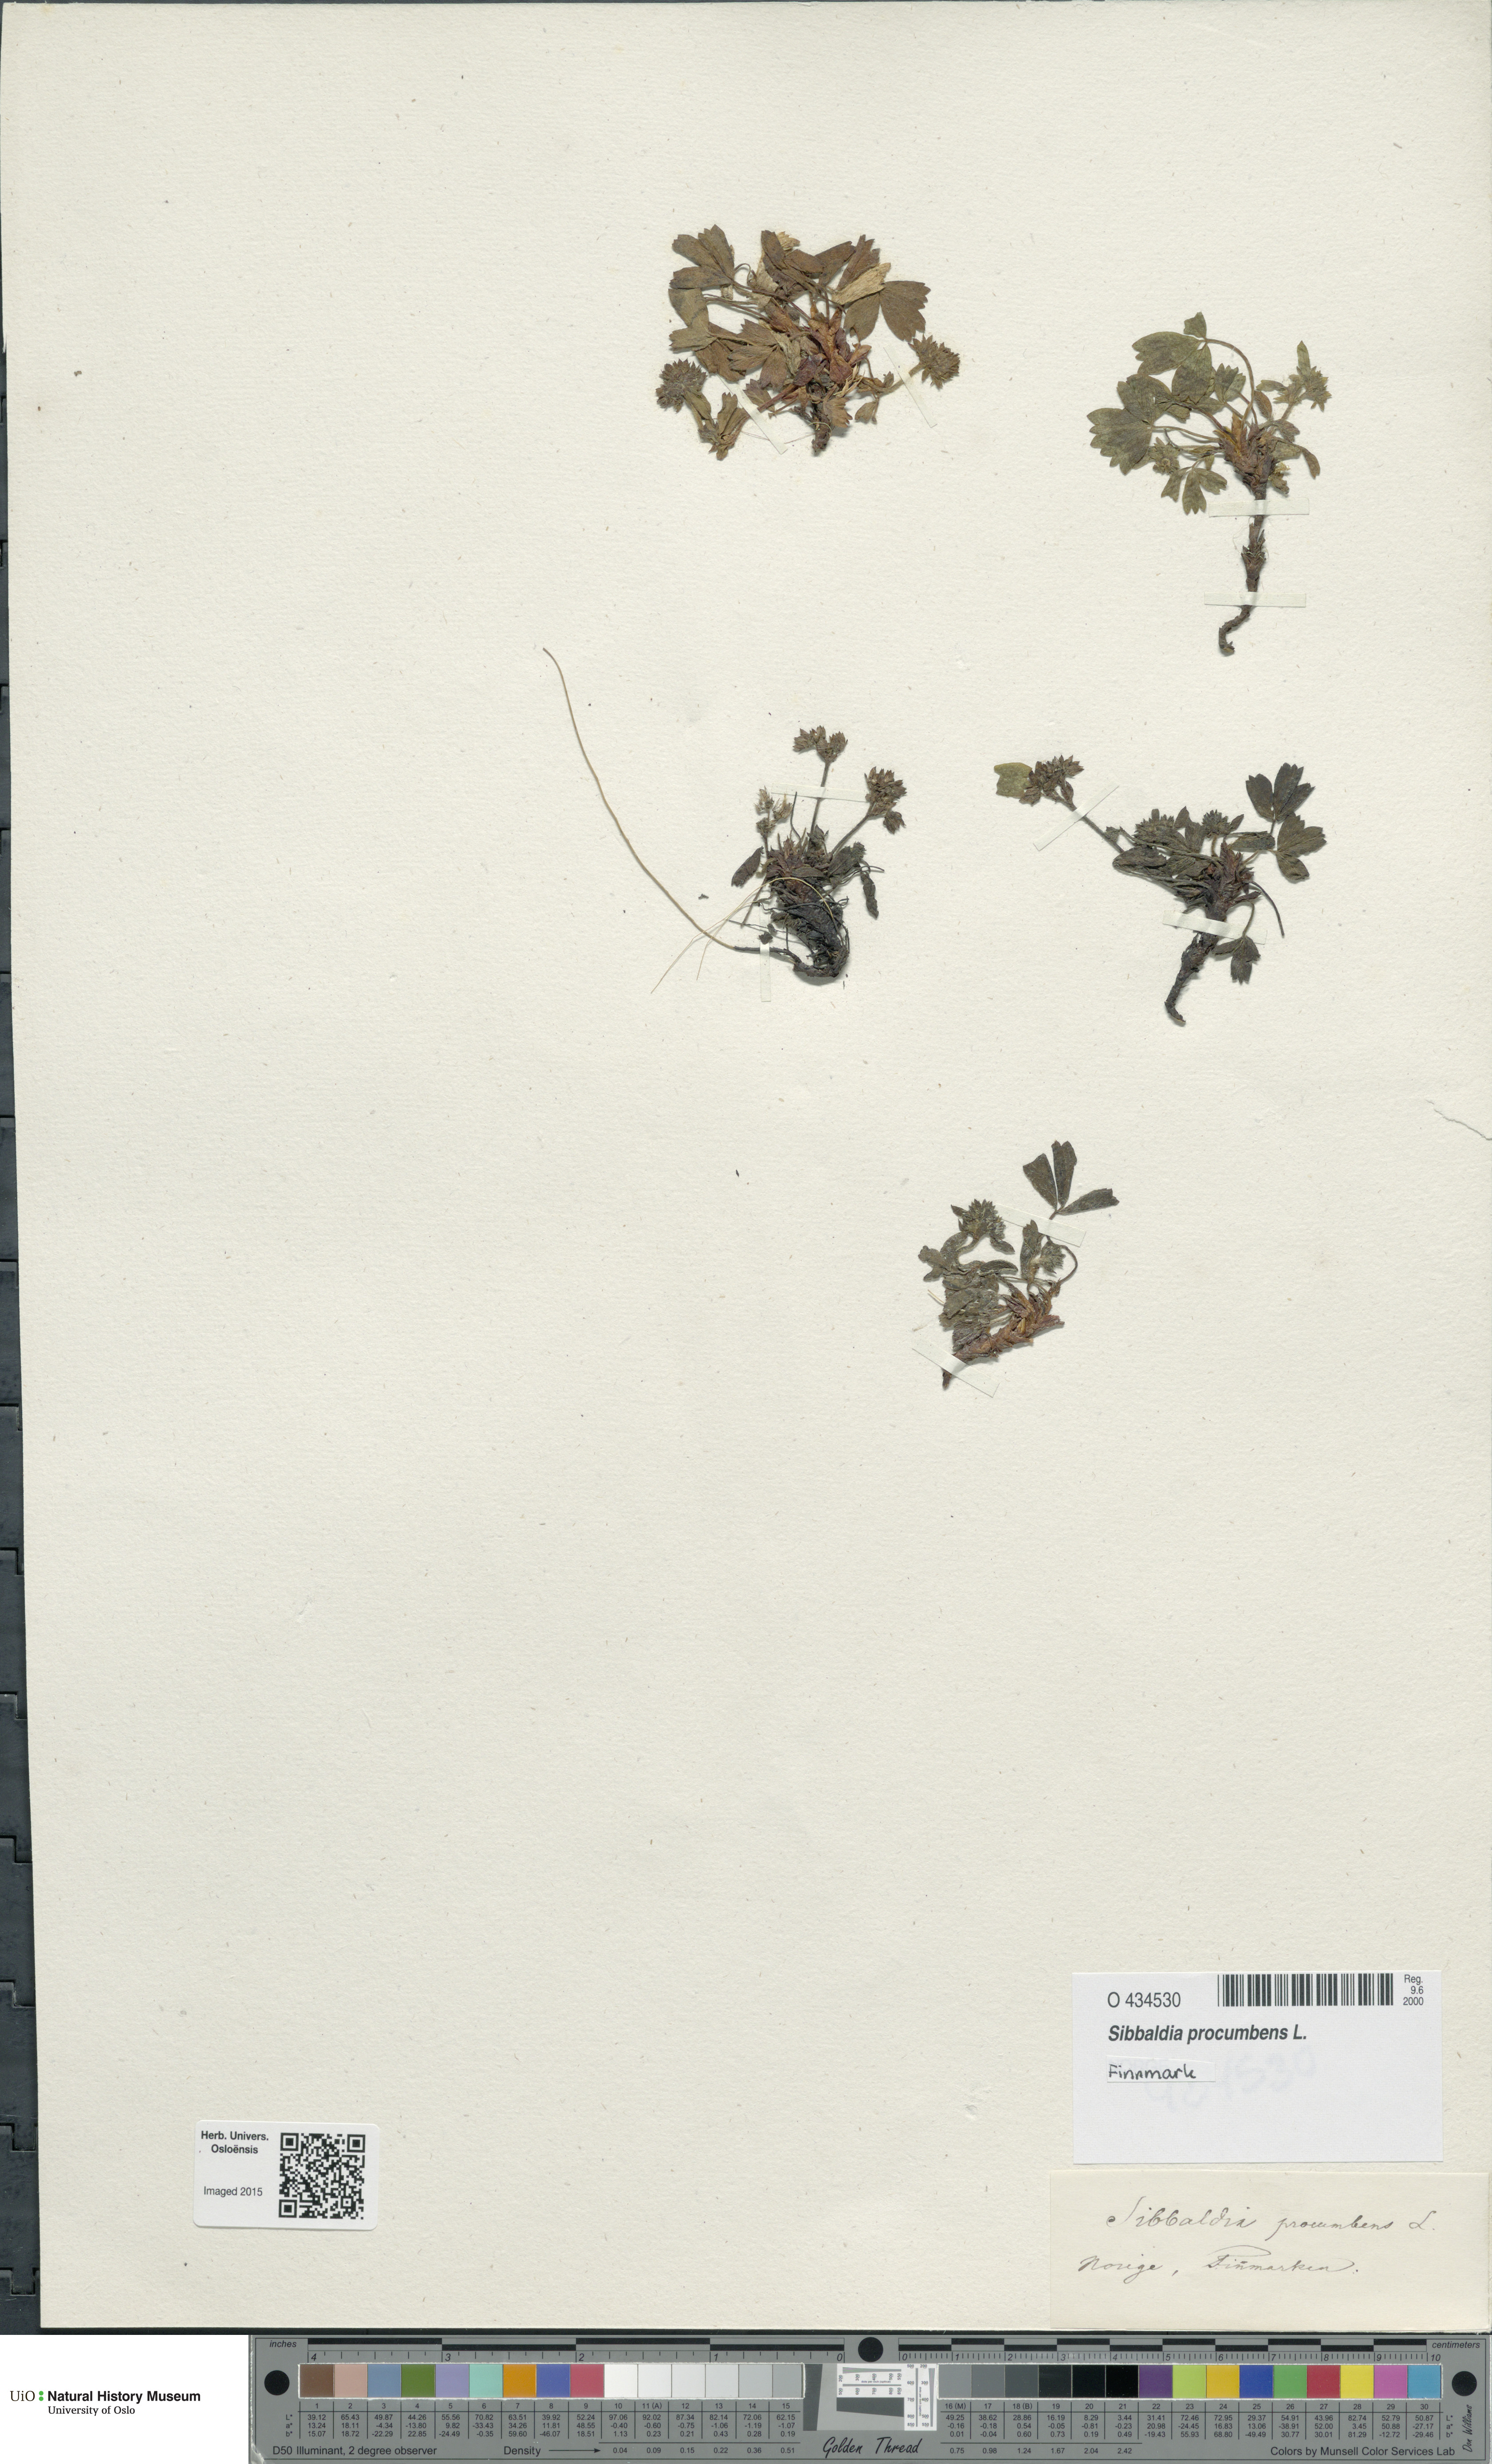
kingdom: Plantae
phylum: Tracheophyta
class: Magnoliopsida
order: Rosales
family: Rosaceae
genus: Sibbaldia
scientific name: Sibbaldia procumbens
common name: Creeping sibbaldia
